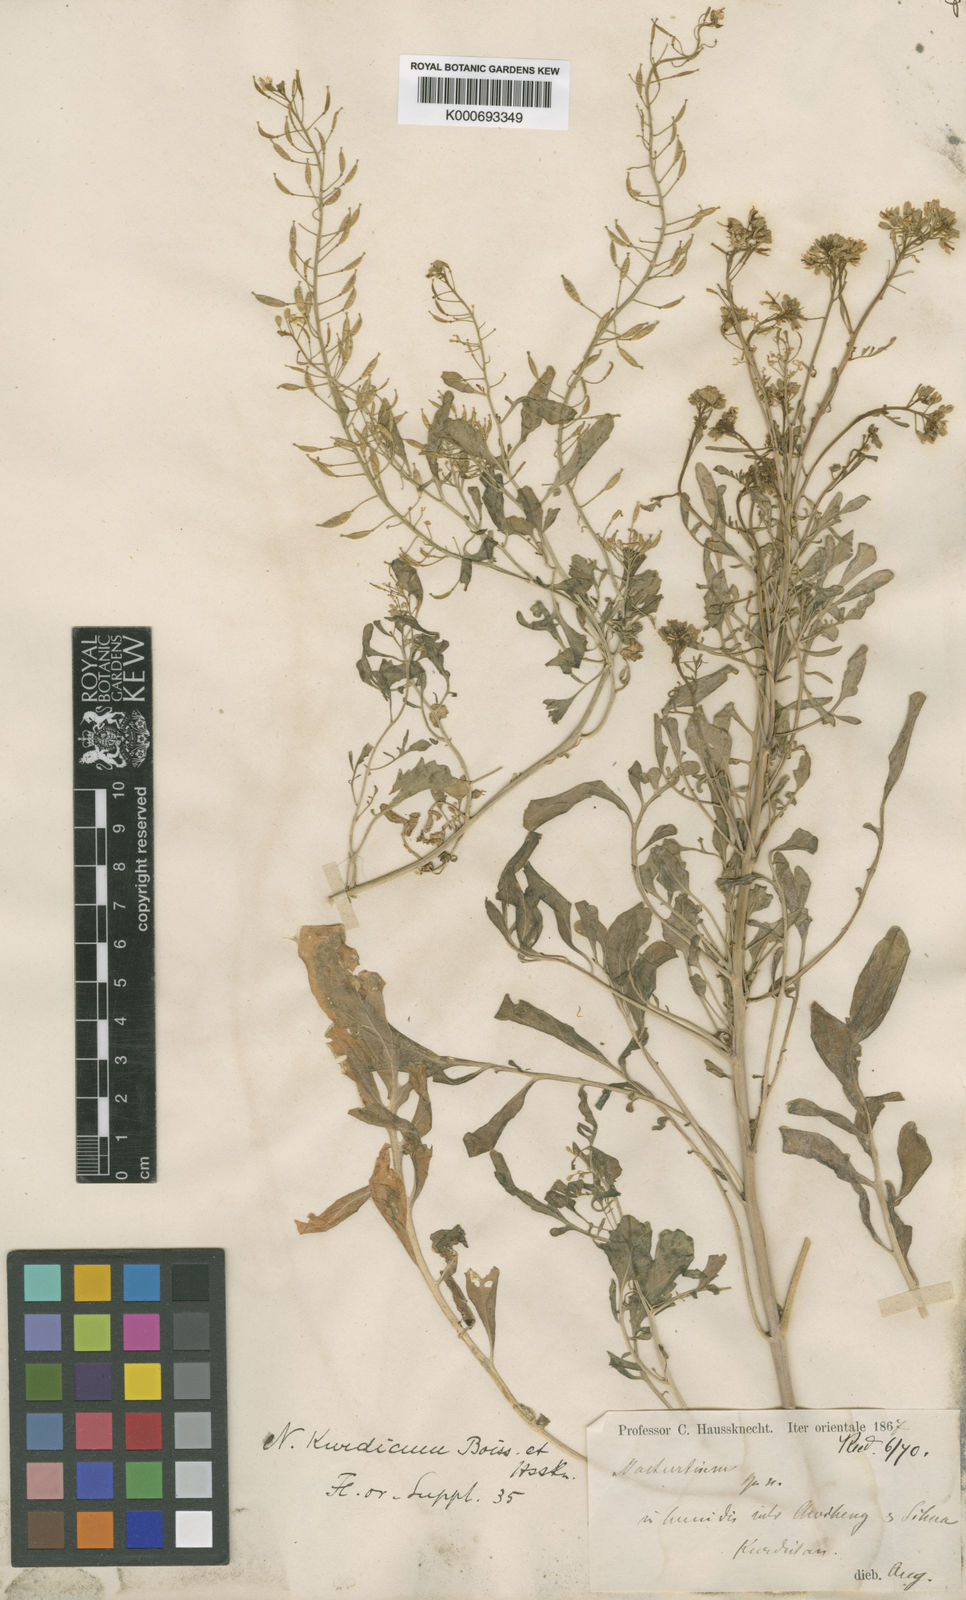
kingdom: Plantae
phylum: Tracheophyta
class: Magnoliopsida
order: Brassicales
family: Brassicaceae
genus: Rorippa
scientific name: Rorippa kurdica
